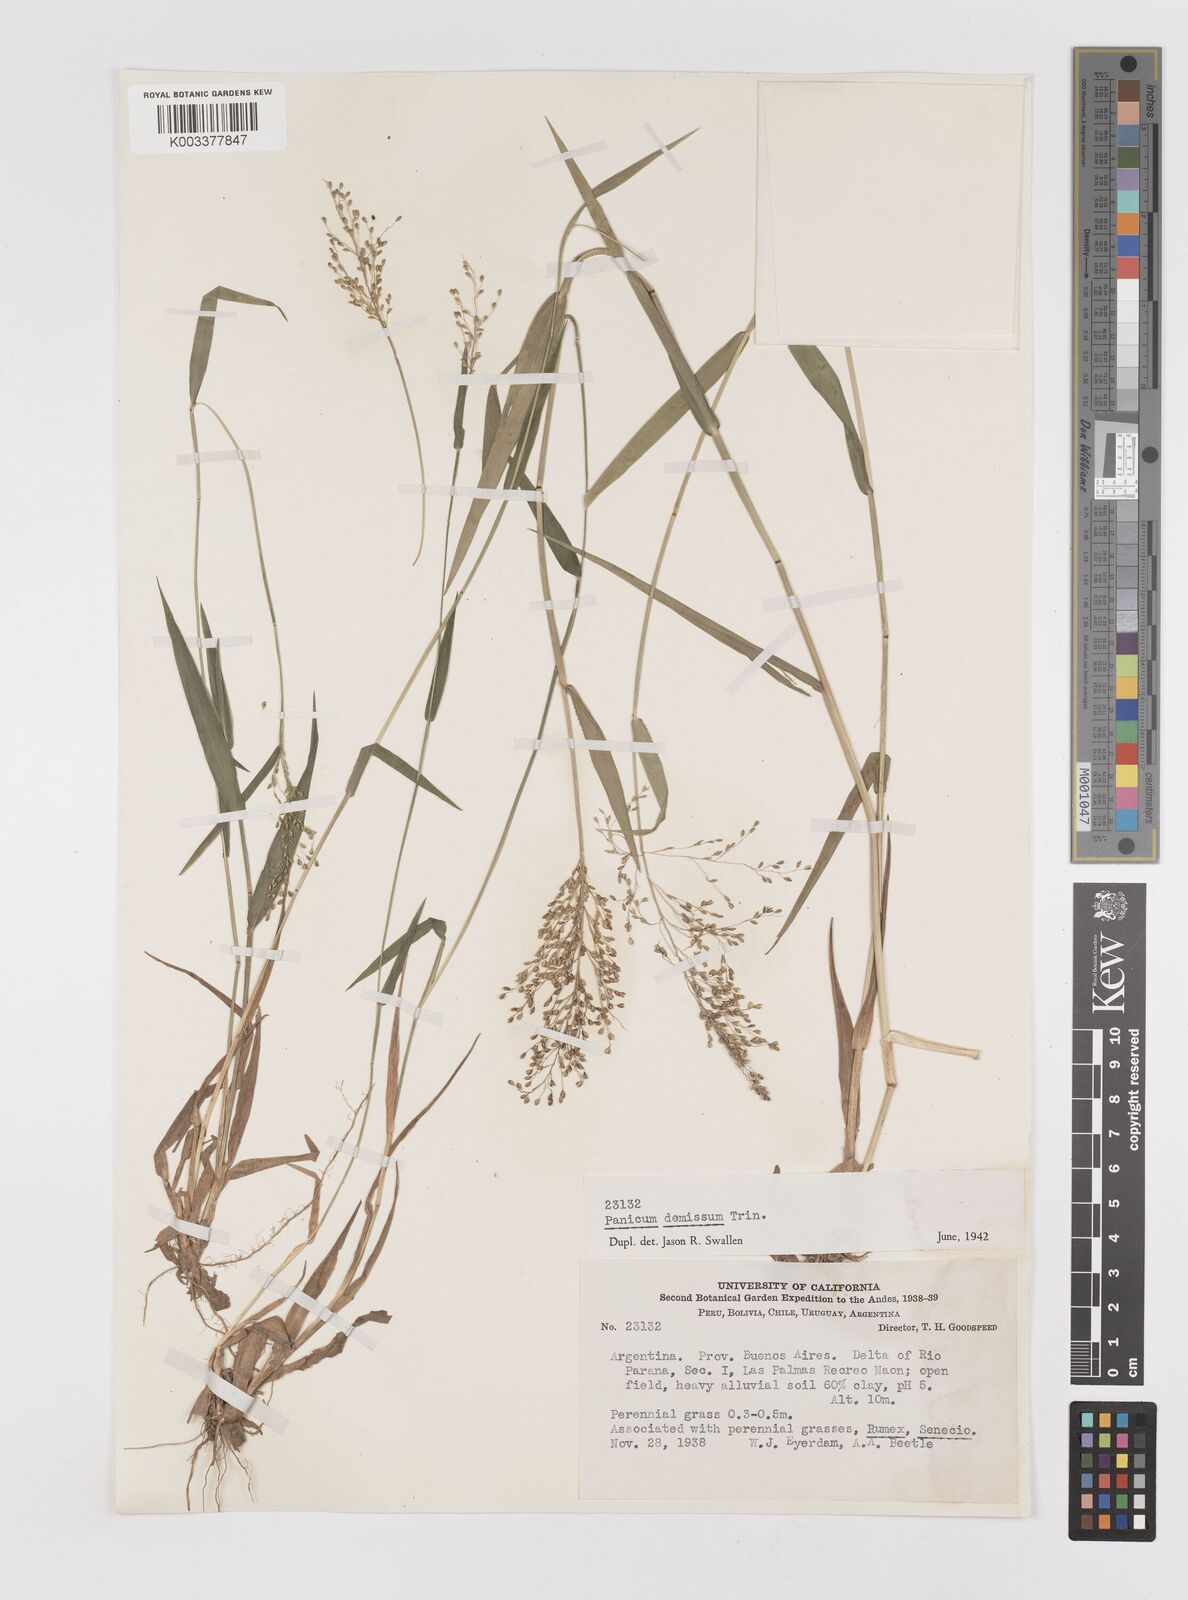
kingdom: Plantae
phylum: Tracheophyta
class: Liliopsida
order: Poales
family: Poaceae
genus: Dichanthelium
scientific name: Dichanthelium stigmosum
